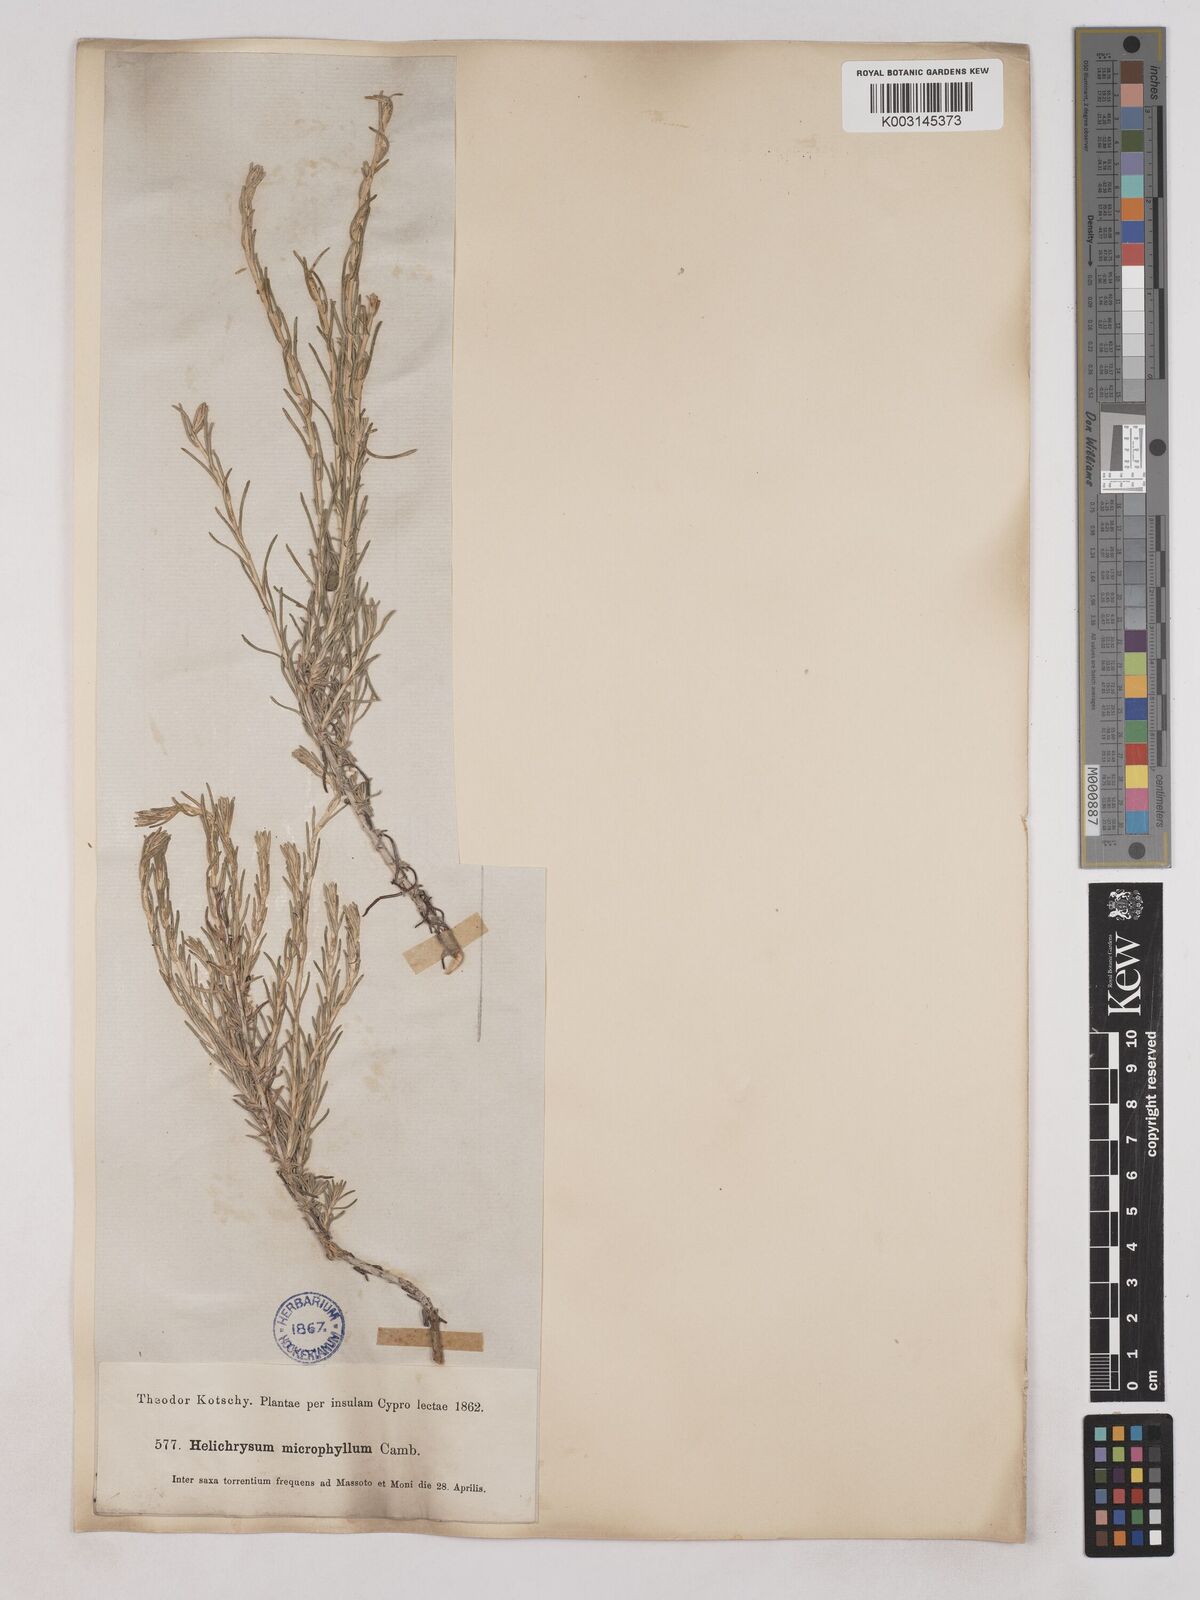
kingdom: Plantae
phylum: Tracheophyta
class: Magnoliopsida
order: Asterales
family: Asteraceae
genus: Helichrysum
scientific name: Helichrysum italicum
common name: Curryplant
